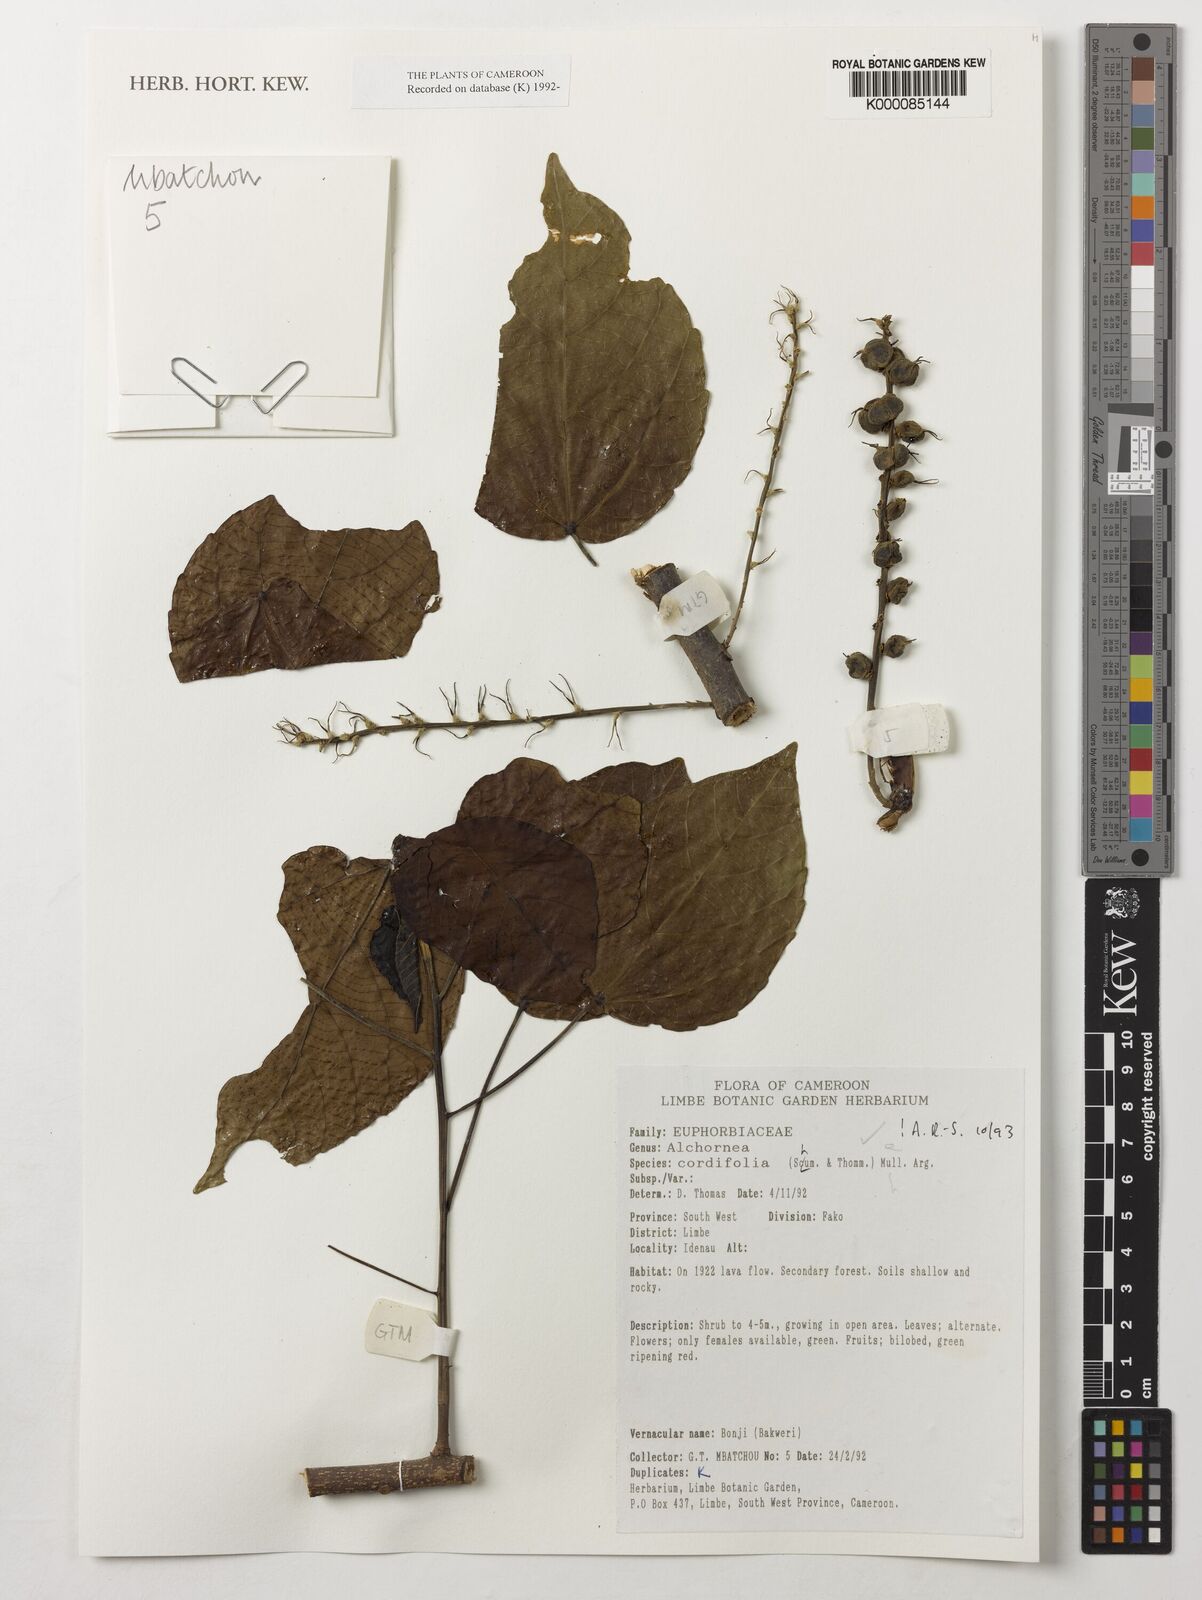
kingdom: Plantae
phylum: Tracheophyta
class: Magnoliopsida
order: Malpighiales
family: Euphorbiaceae
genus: Alchornea
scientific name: Alchornea
